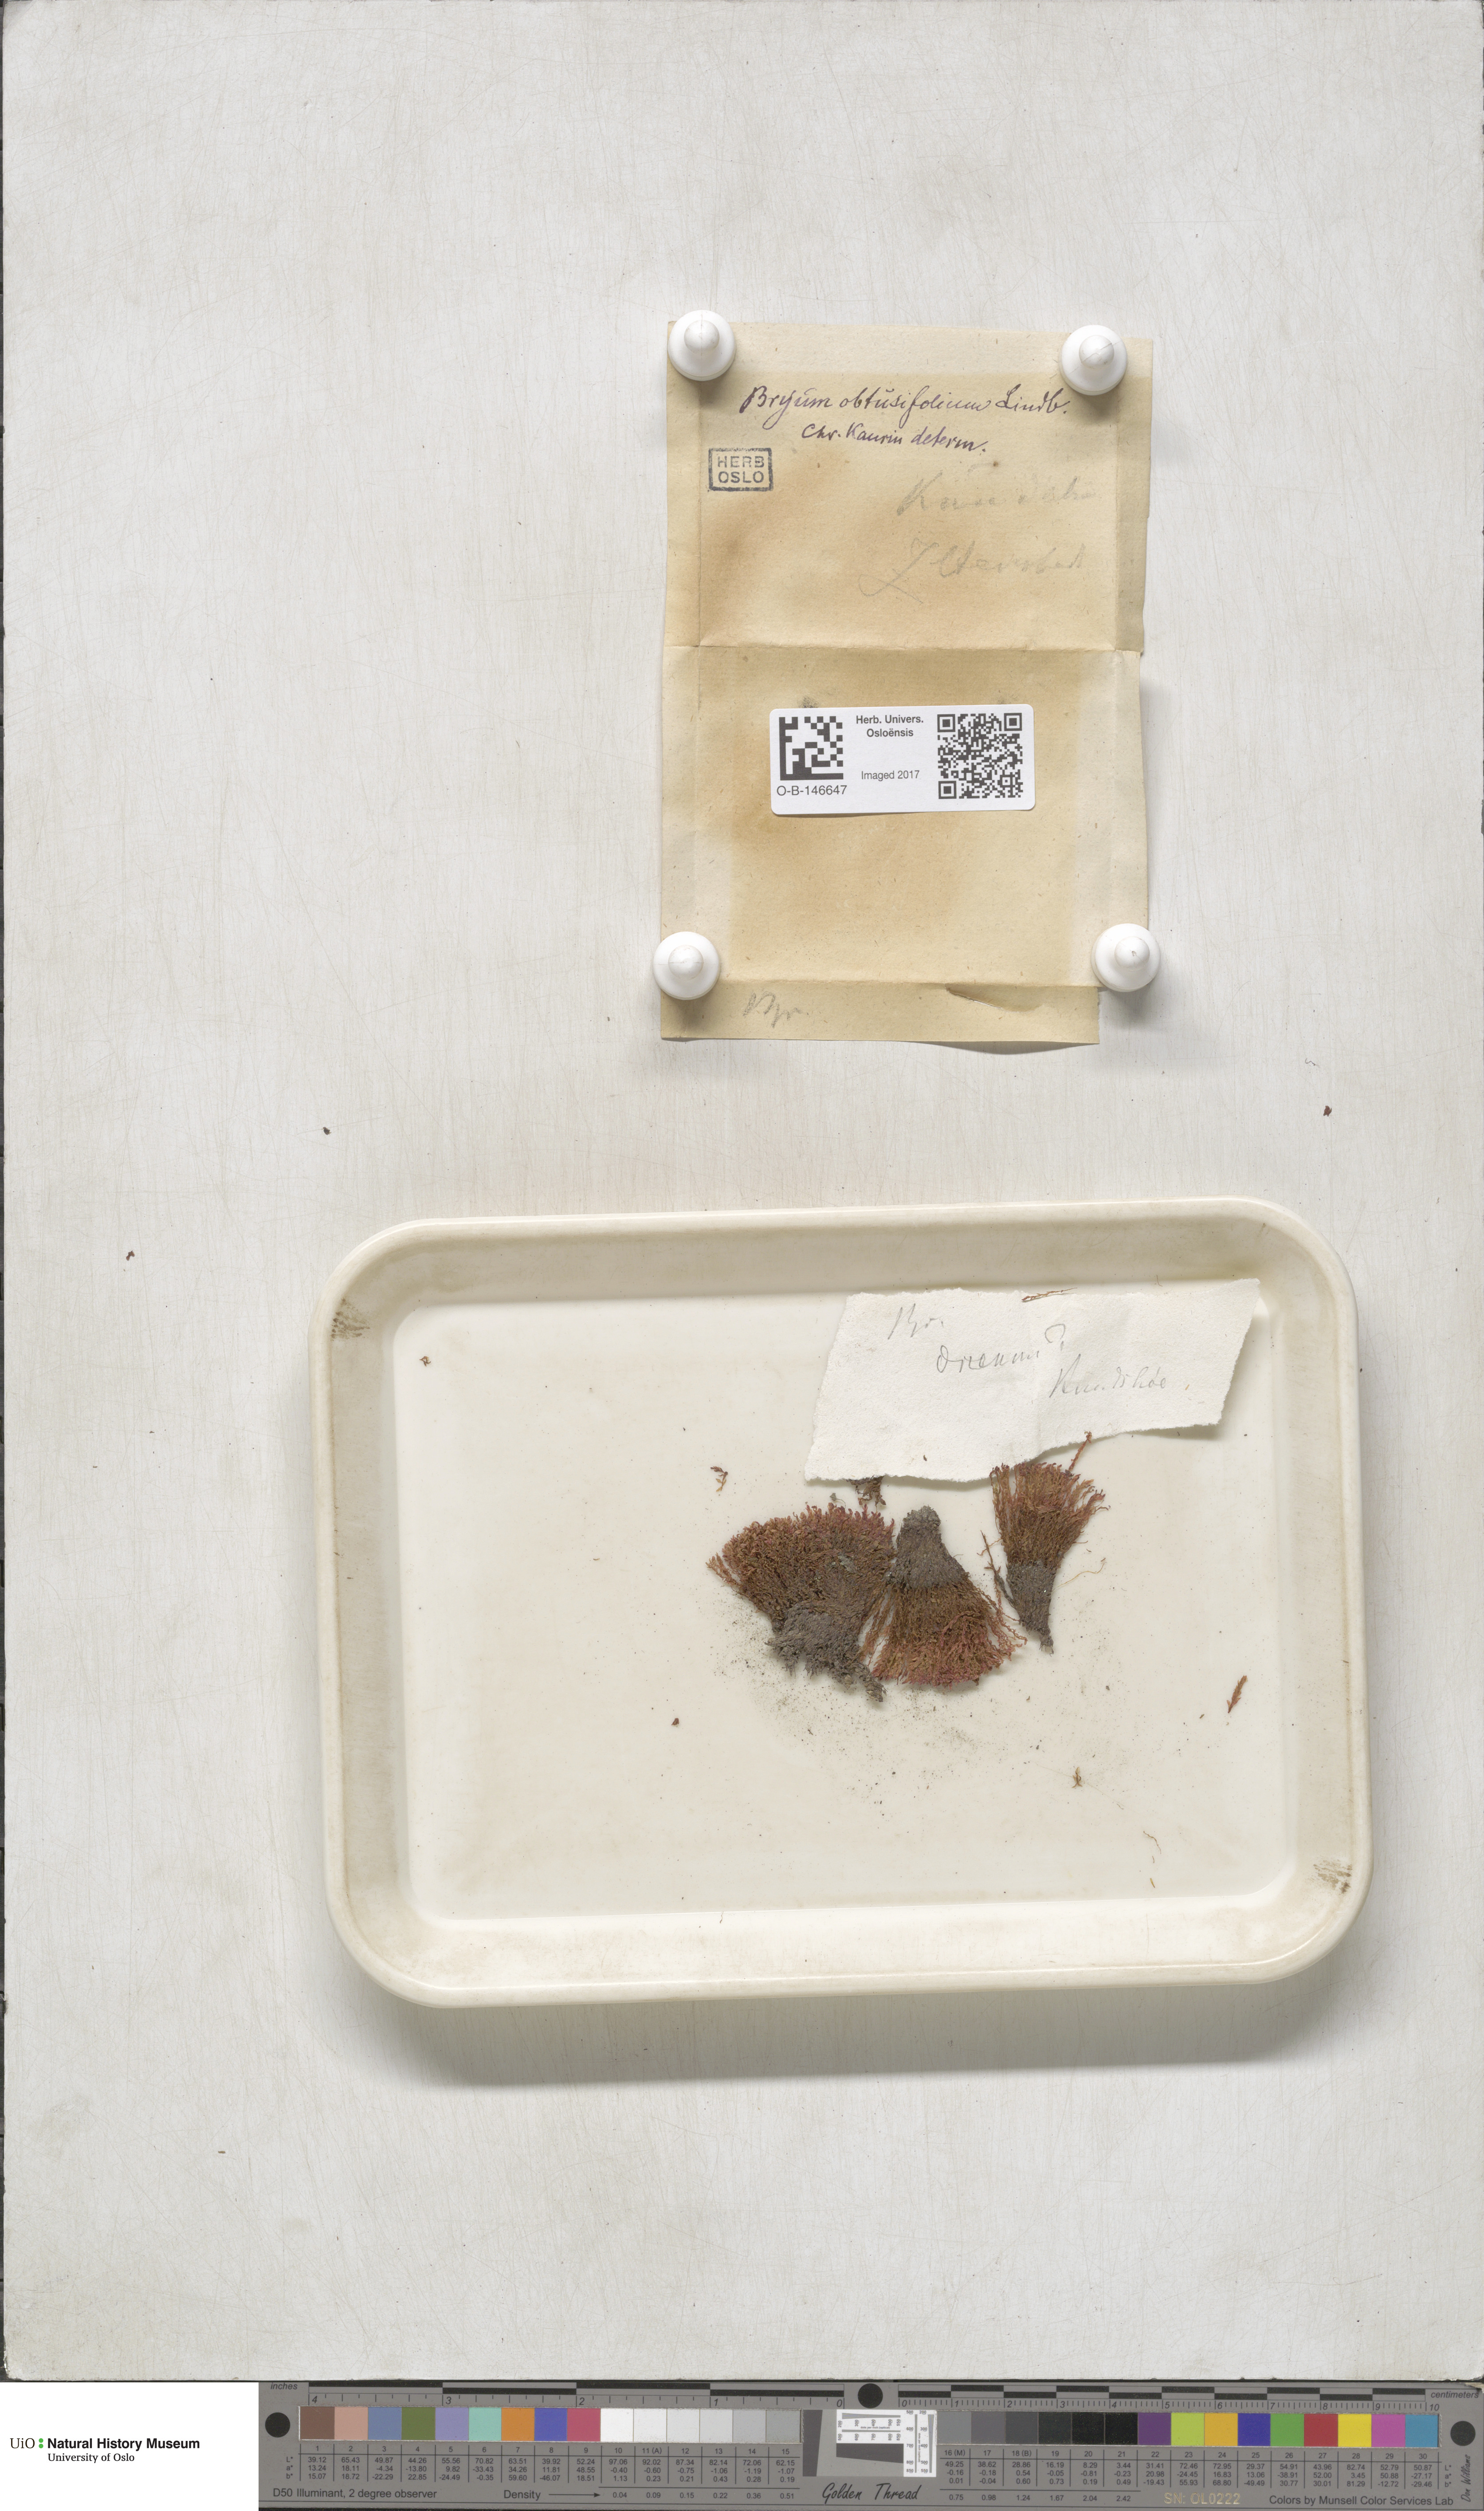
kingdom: Plantae
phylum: Bryophyta
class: Bryopsida
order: Bryales
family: Mniaceae
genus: Pohlia
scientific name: Pohlia obtusifolia
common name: Blunt nodding moss
